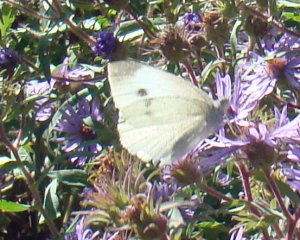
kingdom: Animalia
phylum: Arthropoda
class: Insecta
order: Lepidoptera
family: Pieridae
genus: Pieris
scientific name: Pieris rapae
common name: Cabbage White
